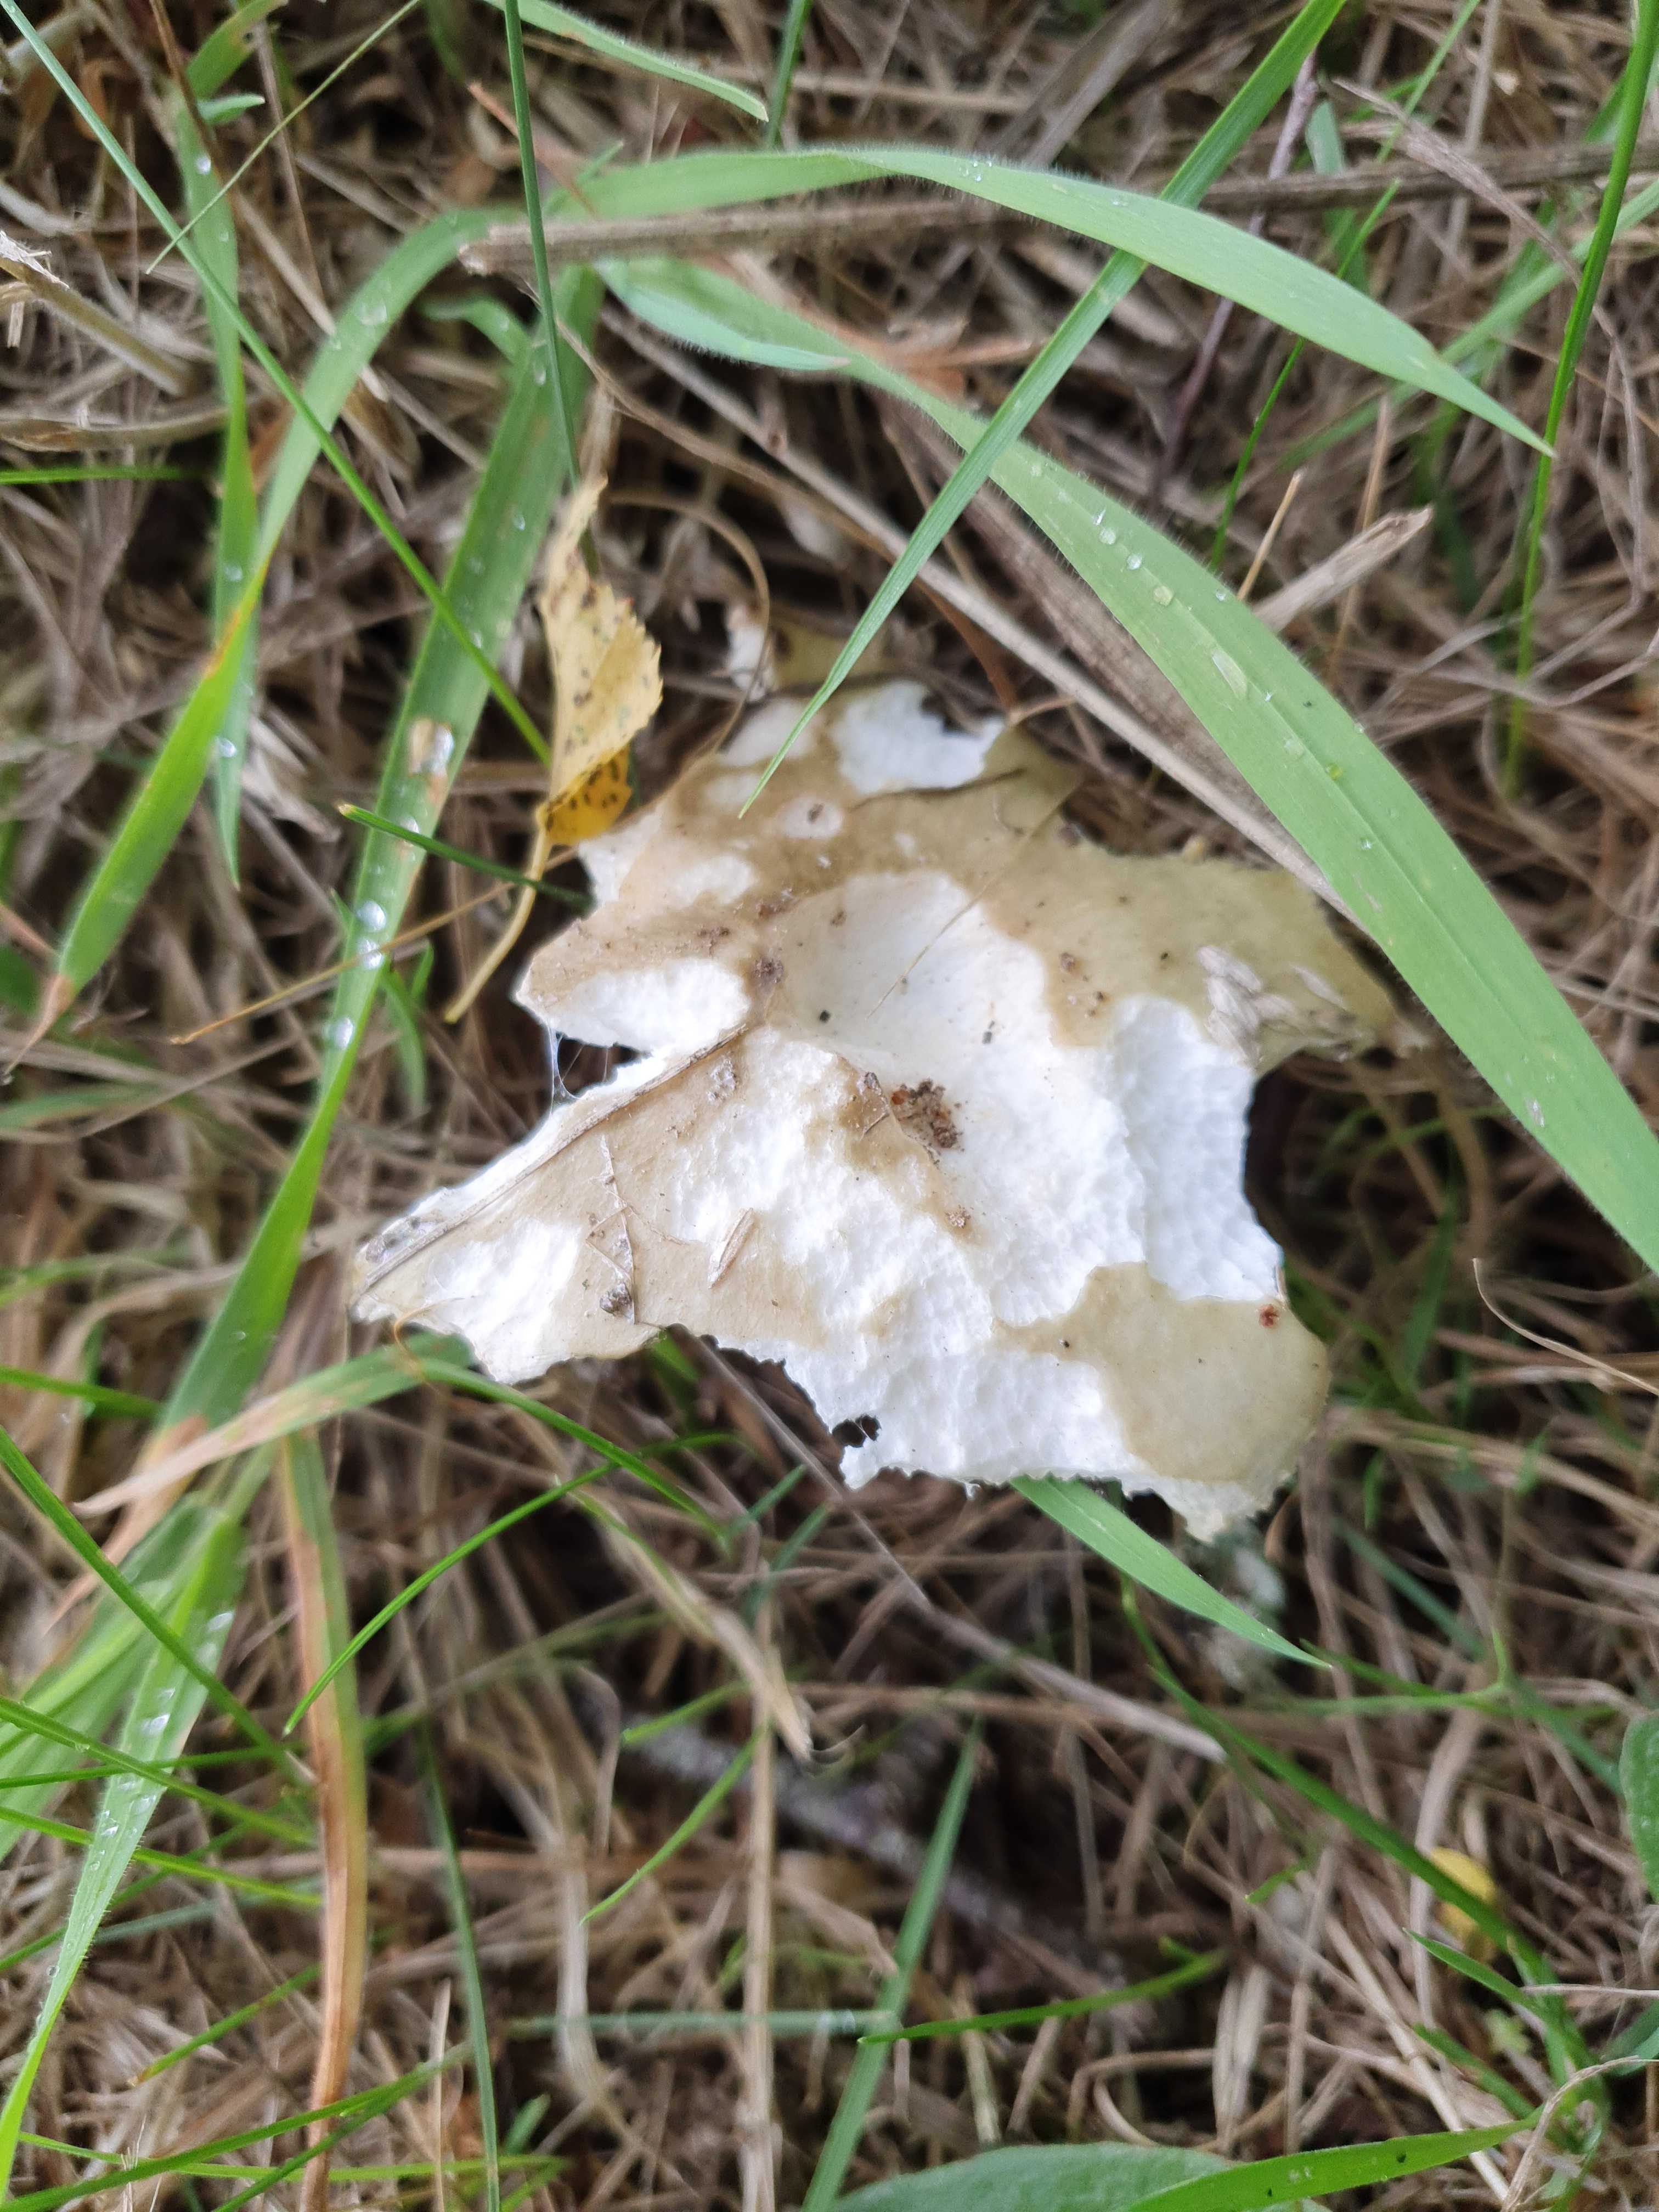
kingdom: Fungi
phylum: Basidiomycota
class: Agaricomycetes
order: Russulales
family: Russulaceae
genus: Russula
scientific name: Russula aeruginea
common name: græsgrøn skørhat
